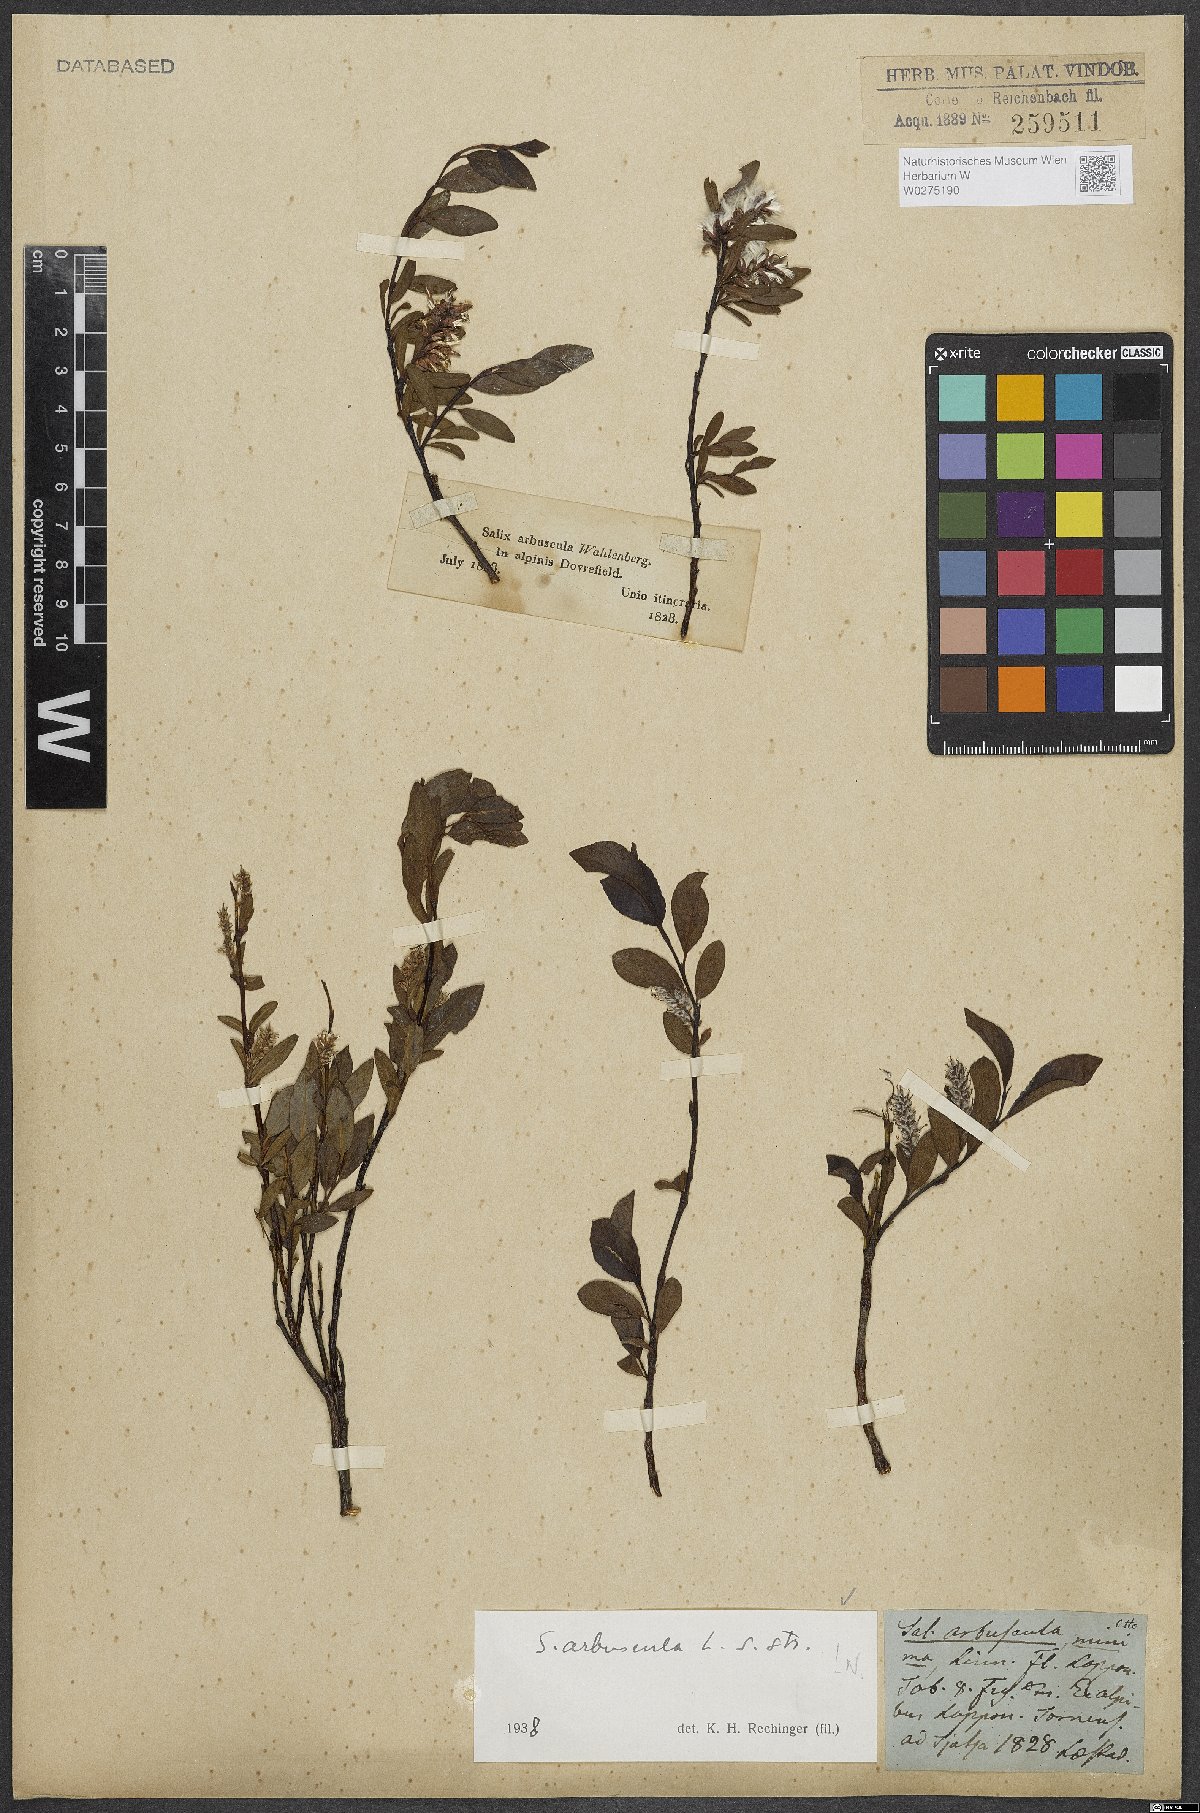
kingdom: Plantae
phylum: Tracheophyta
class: Magnoliopsida
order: Malpighiales
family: Salicaceae
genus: Salix
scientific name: Salix arbuscula
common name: Mountain willow
